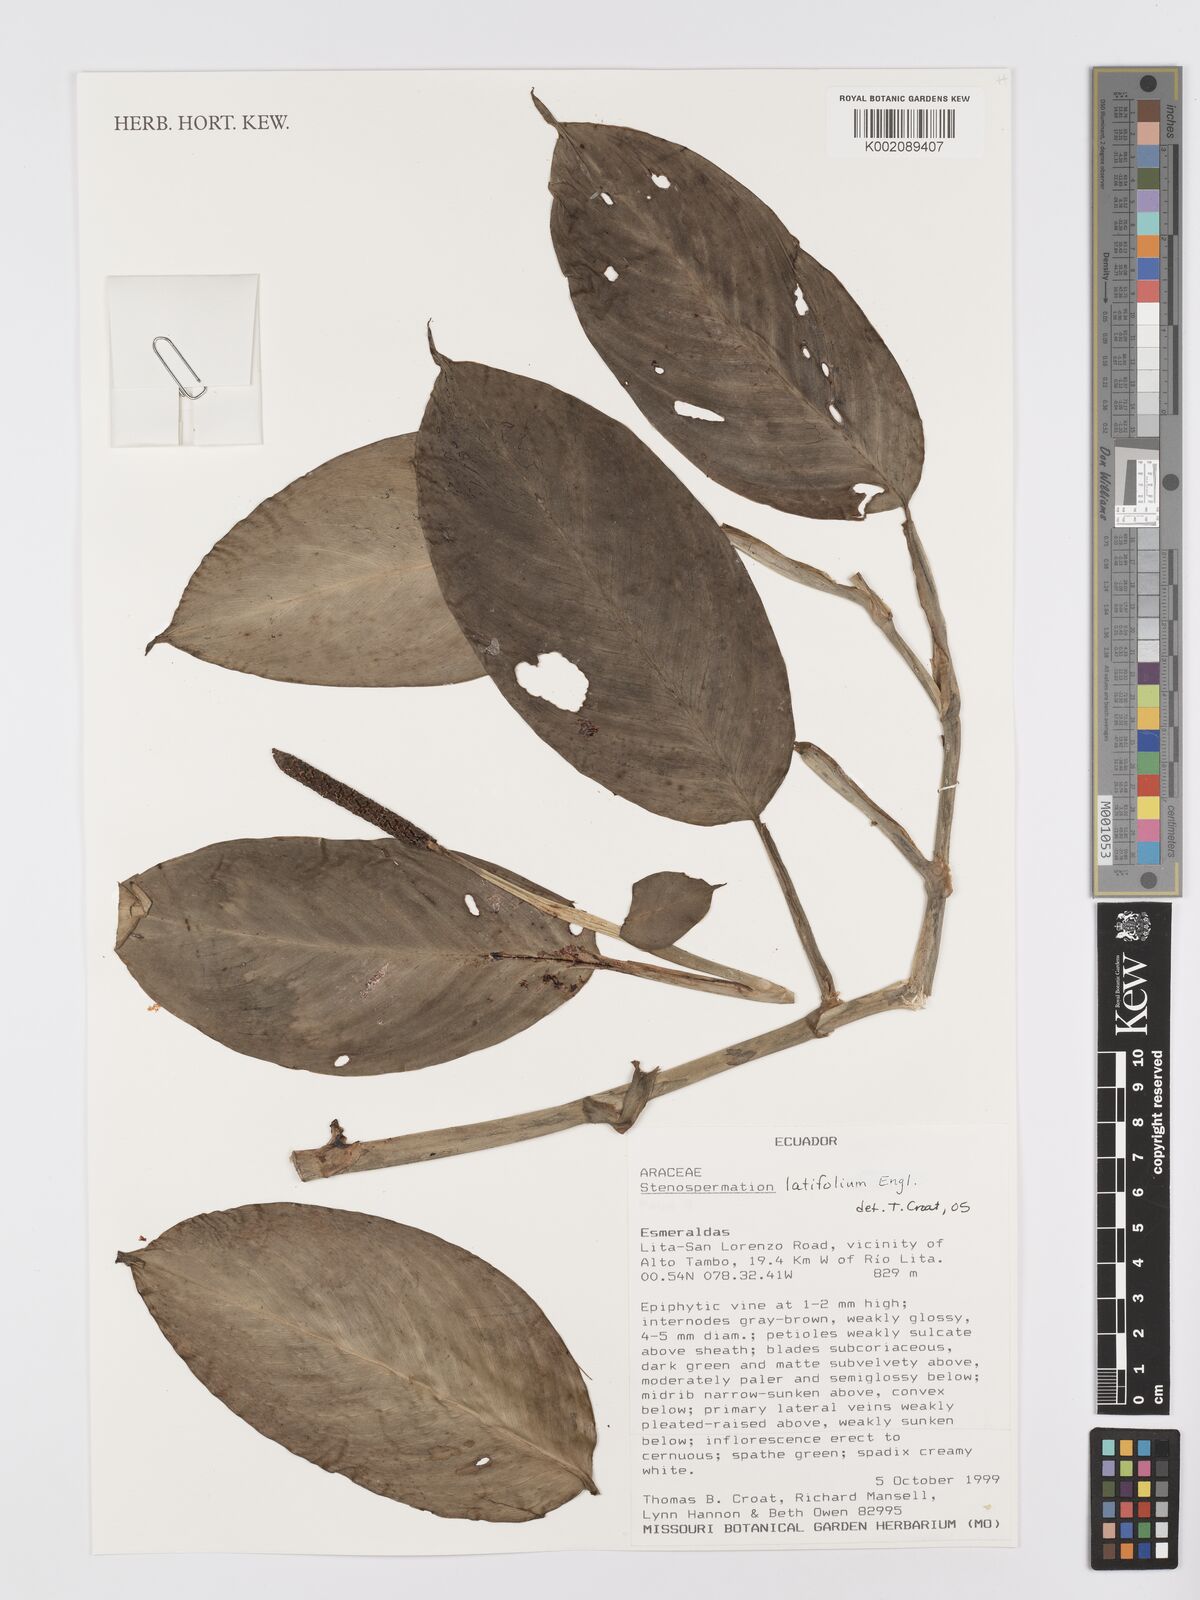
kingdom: Plantae
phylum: Tracheophyta
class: Liliopsida
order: Alismatales
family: Araceae
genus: Stenospermation
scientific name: Stenospermation latifolium
